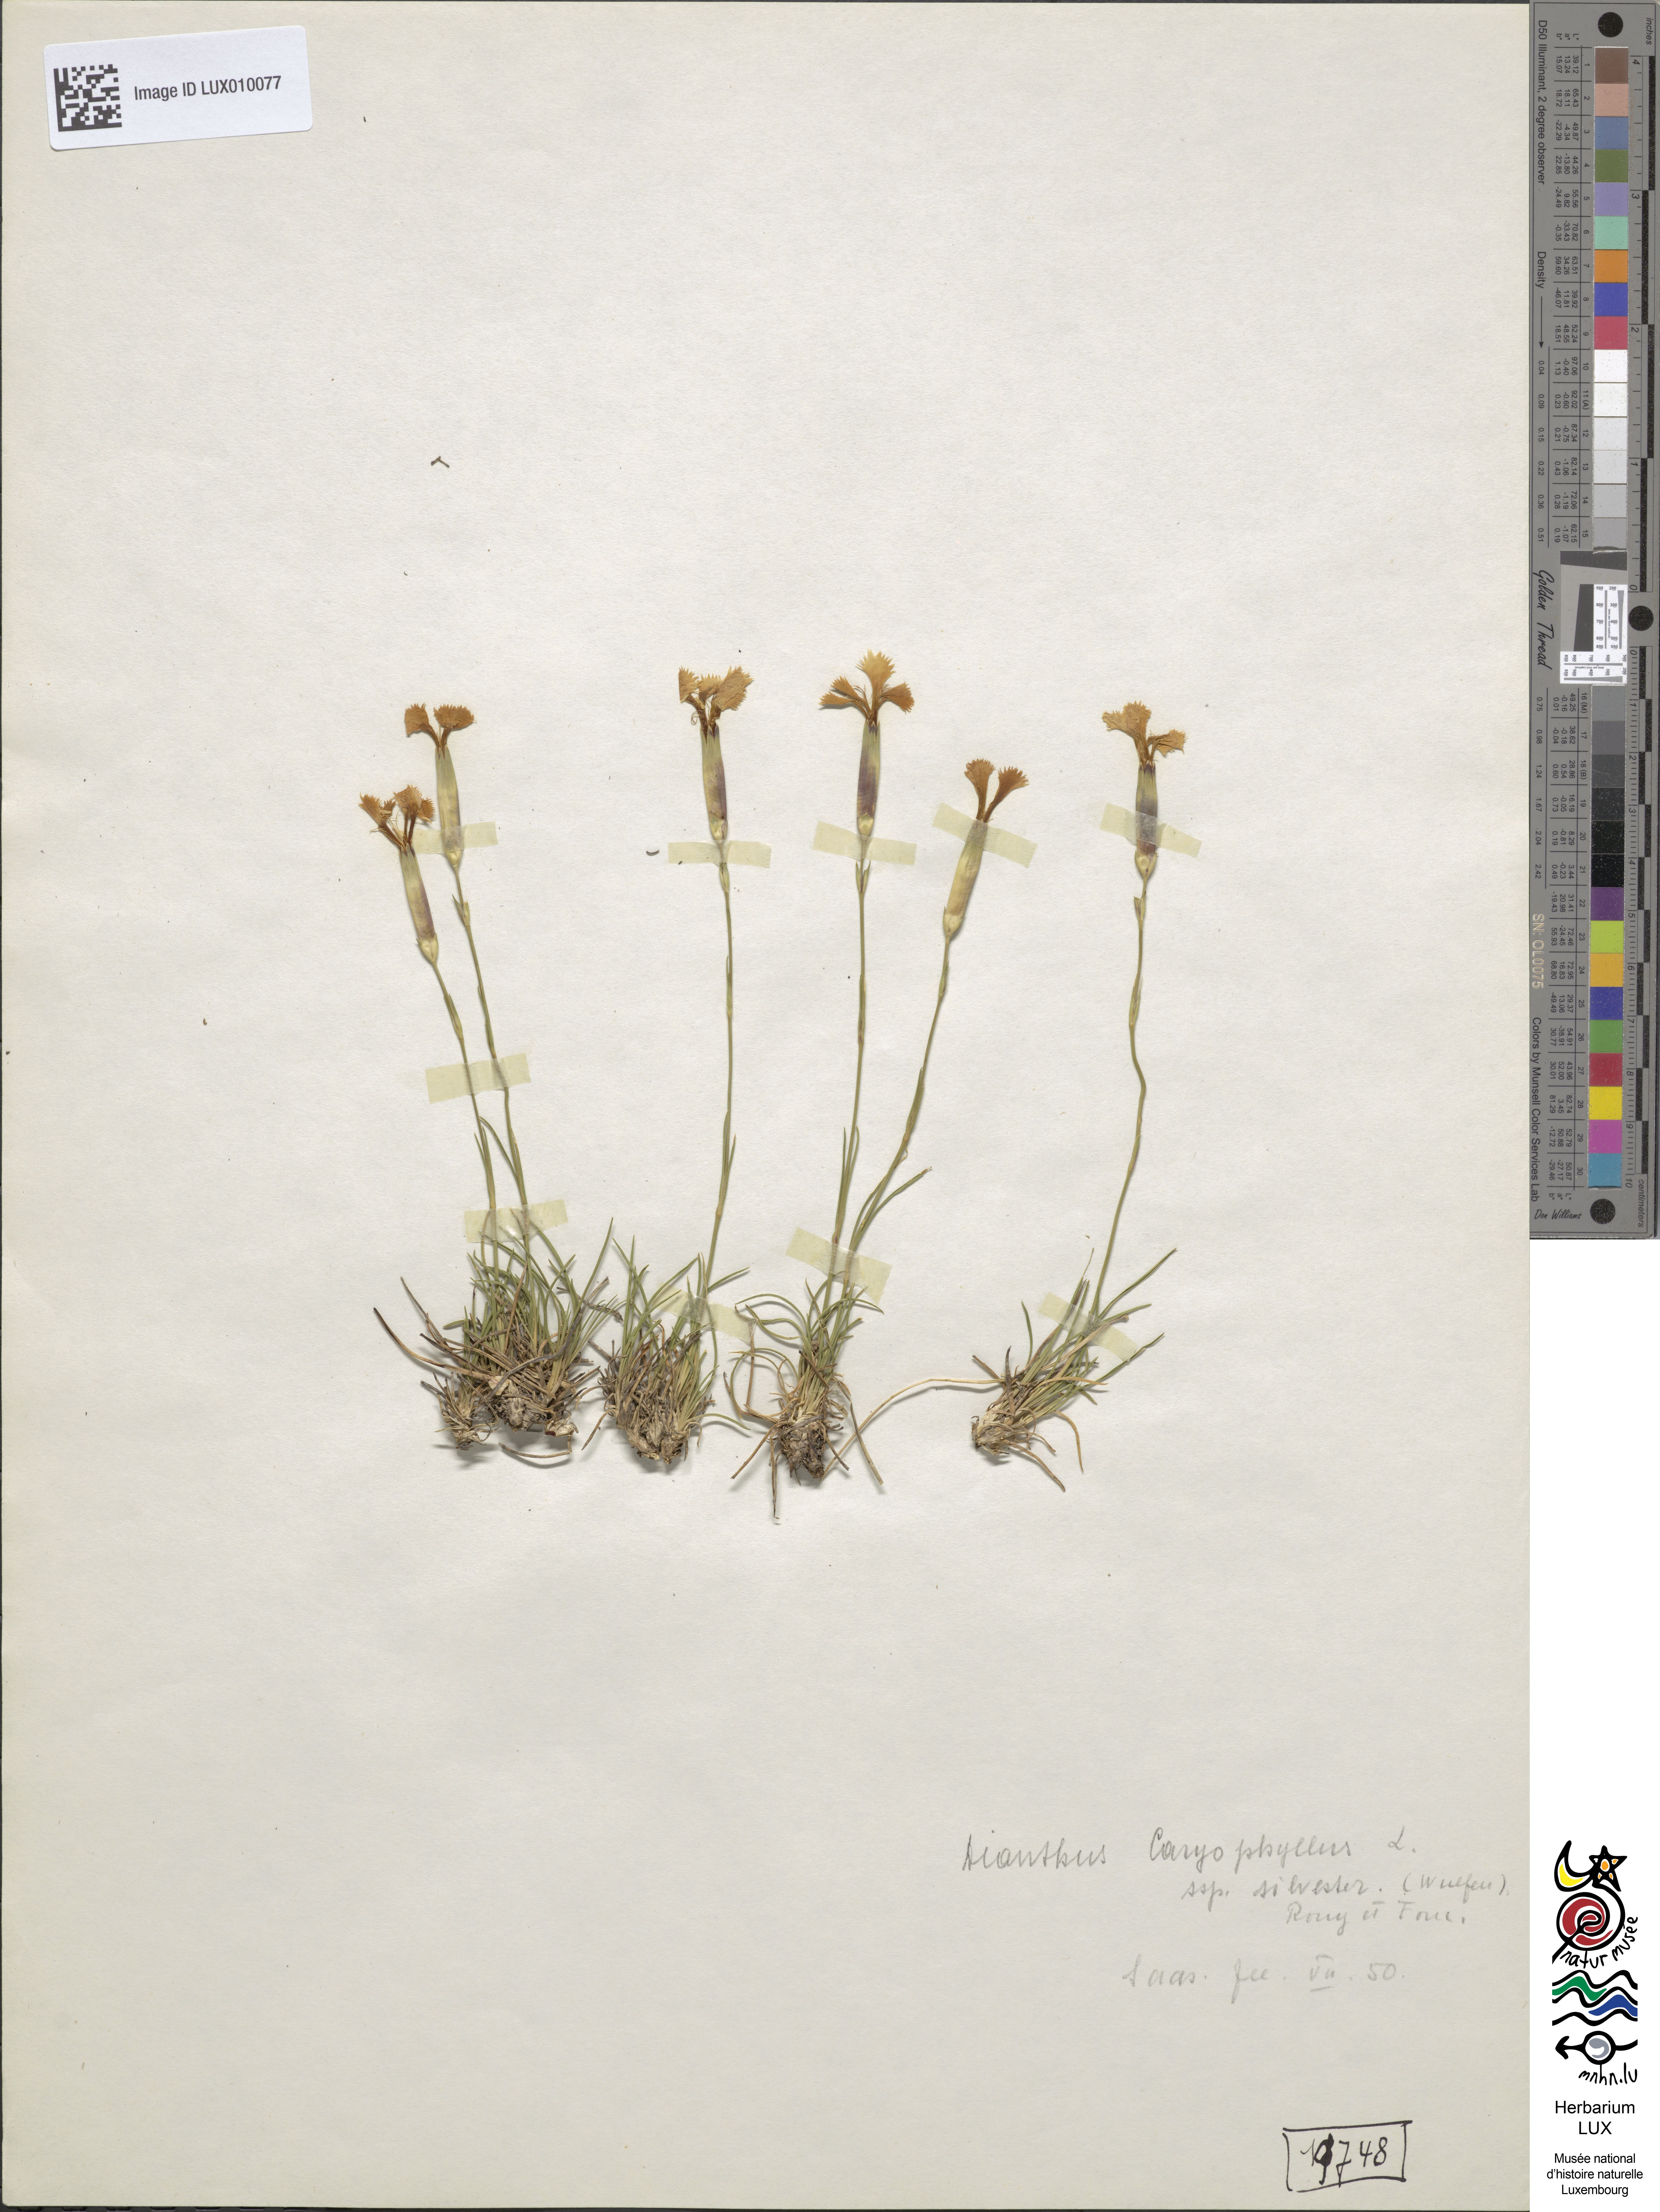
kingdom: Plantae
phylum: Tracheophyta
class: Magnoliopsida
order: Caryophyllales
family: Caryophyllaceae
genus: Dianthus
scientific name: Dianthus sylvestris
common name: Wood pink
